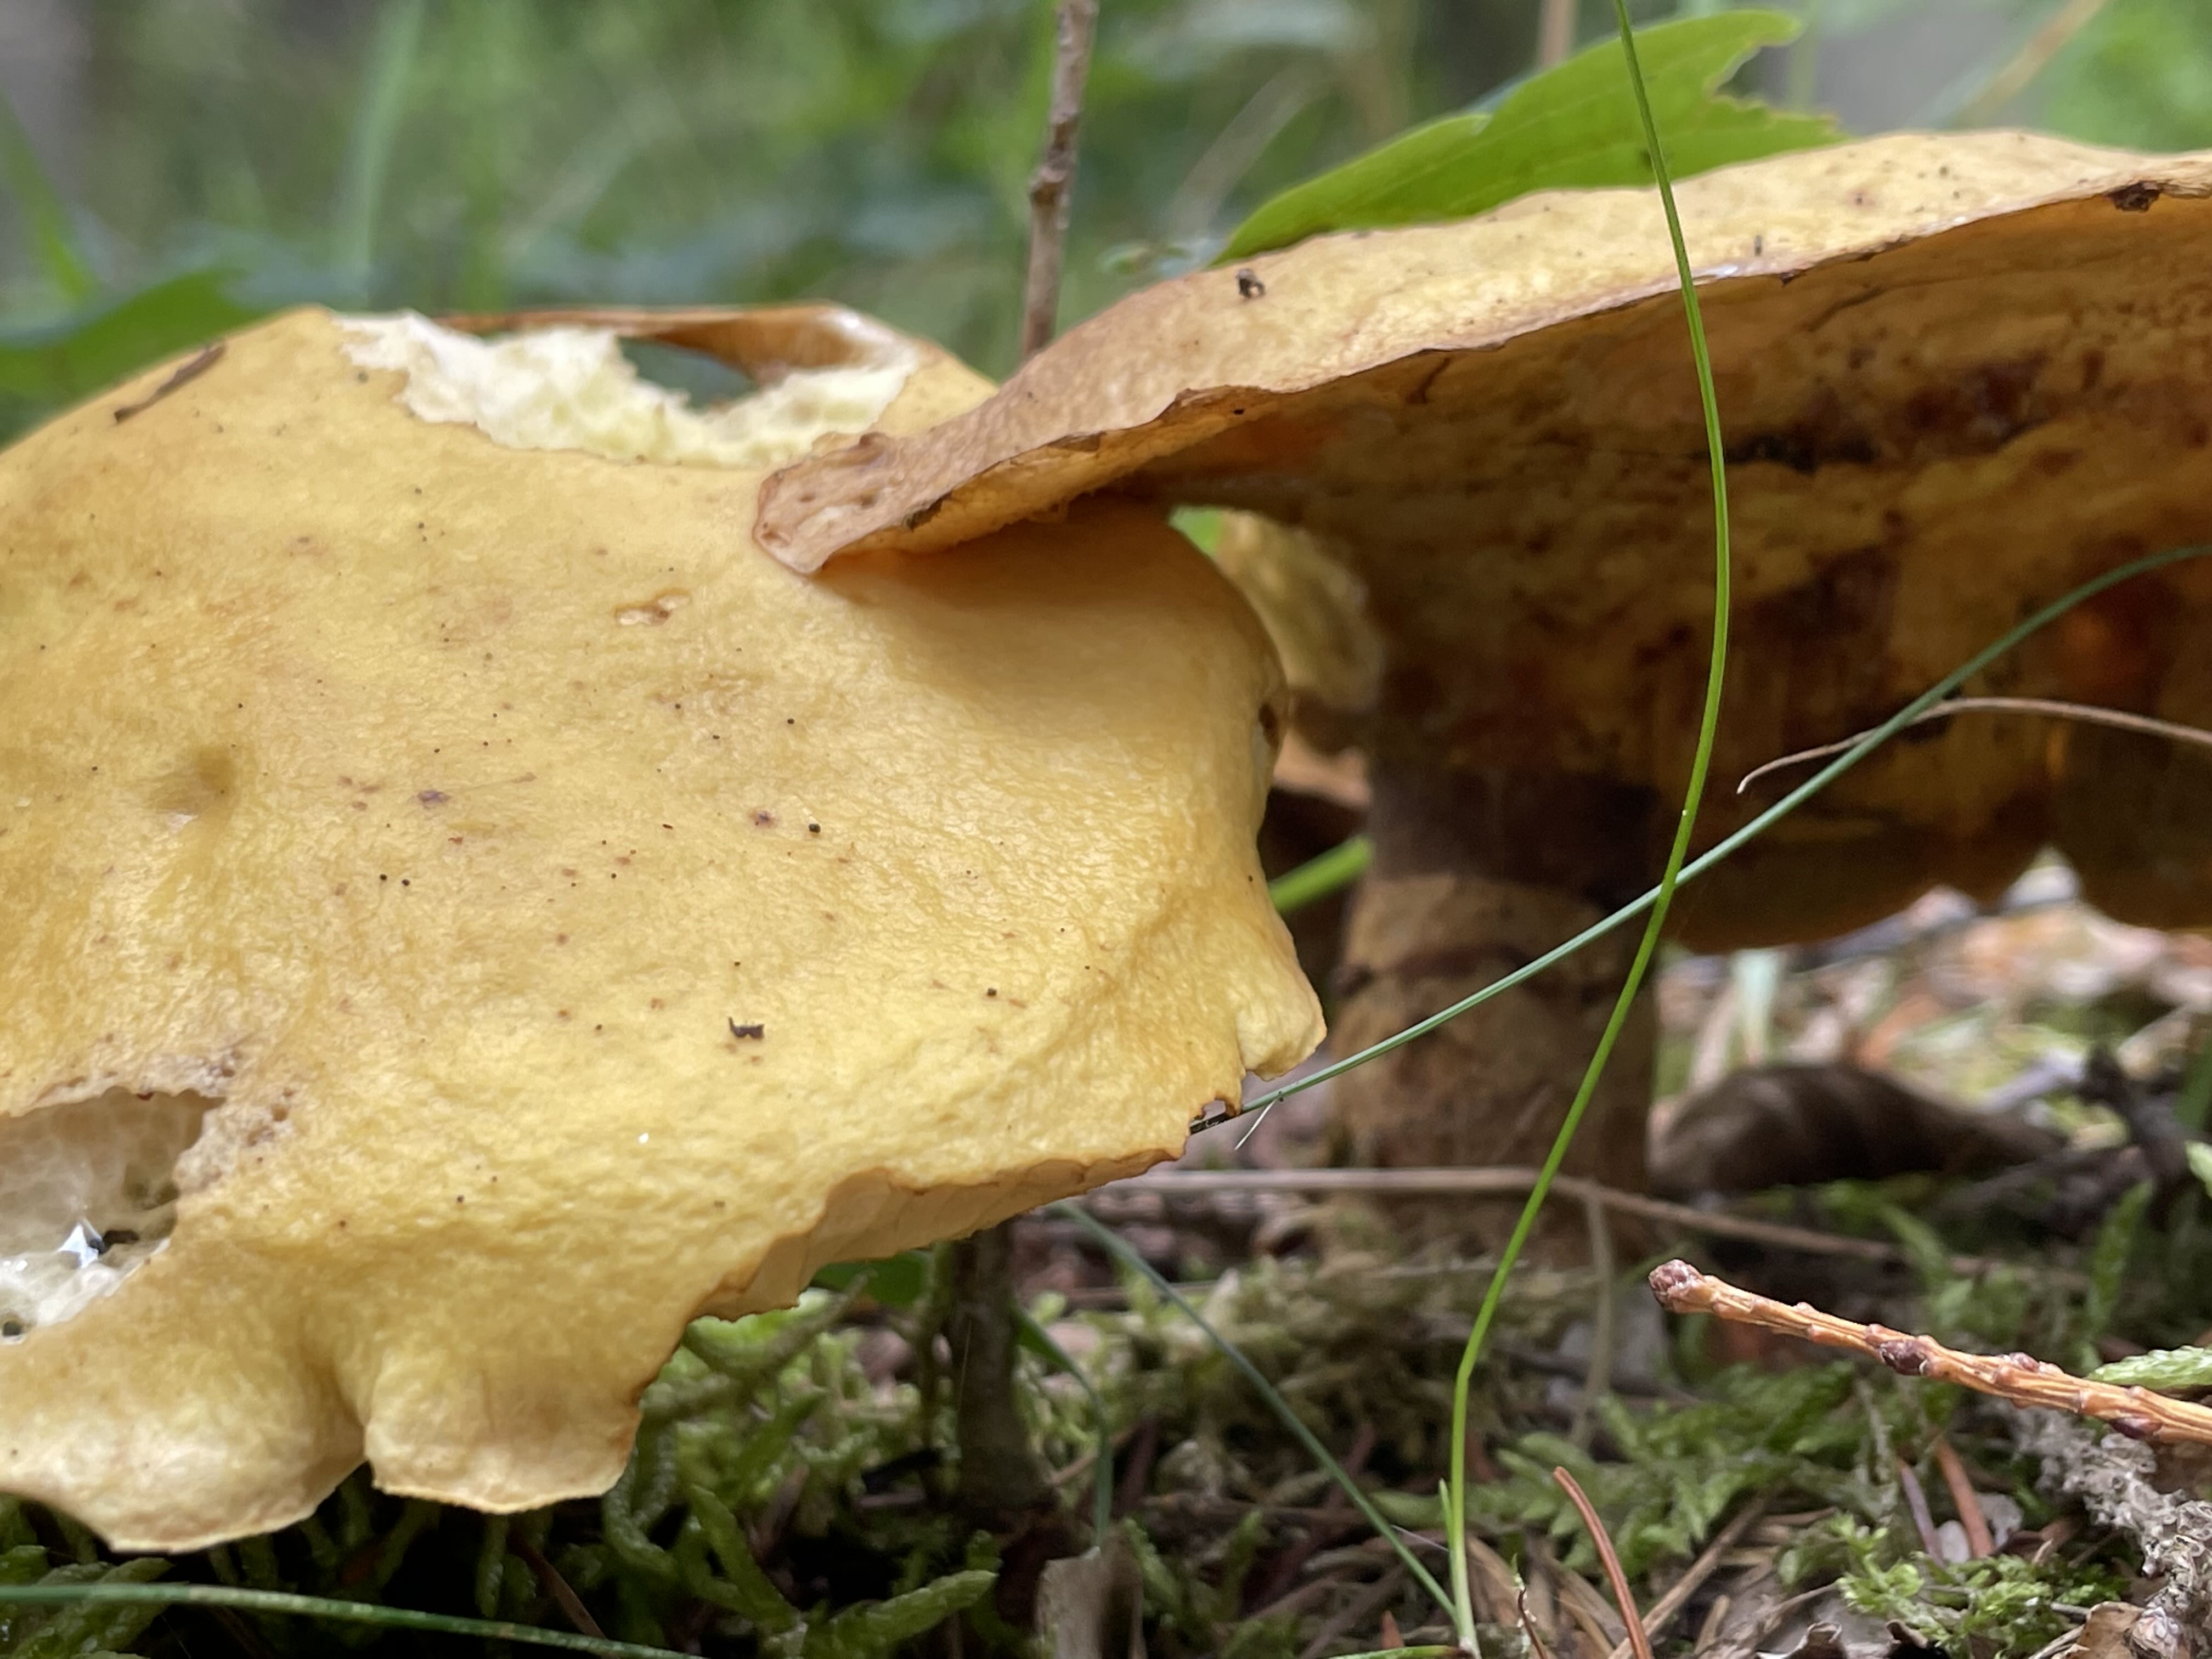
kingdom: Fungi
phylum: Basidiomycota
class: Agaricomycetes
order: Boletales
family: Suillaceae
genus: Suillus
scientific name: Suillus grevillei
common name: lærke-slimrørhat
